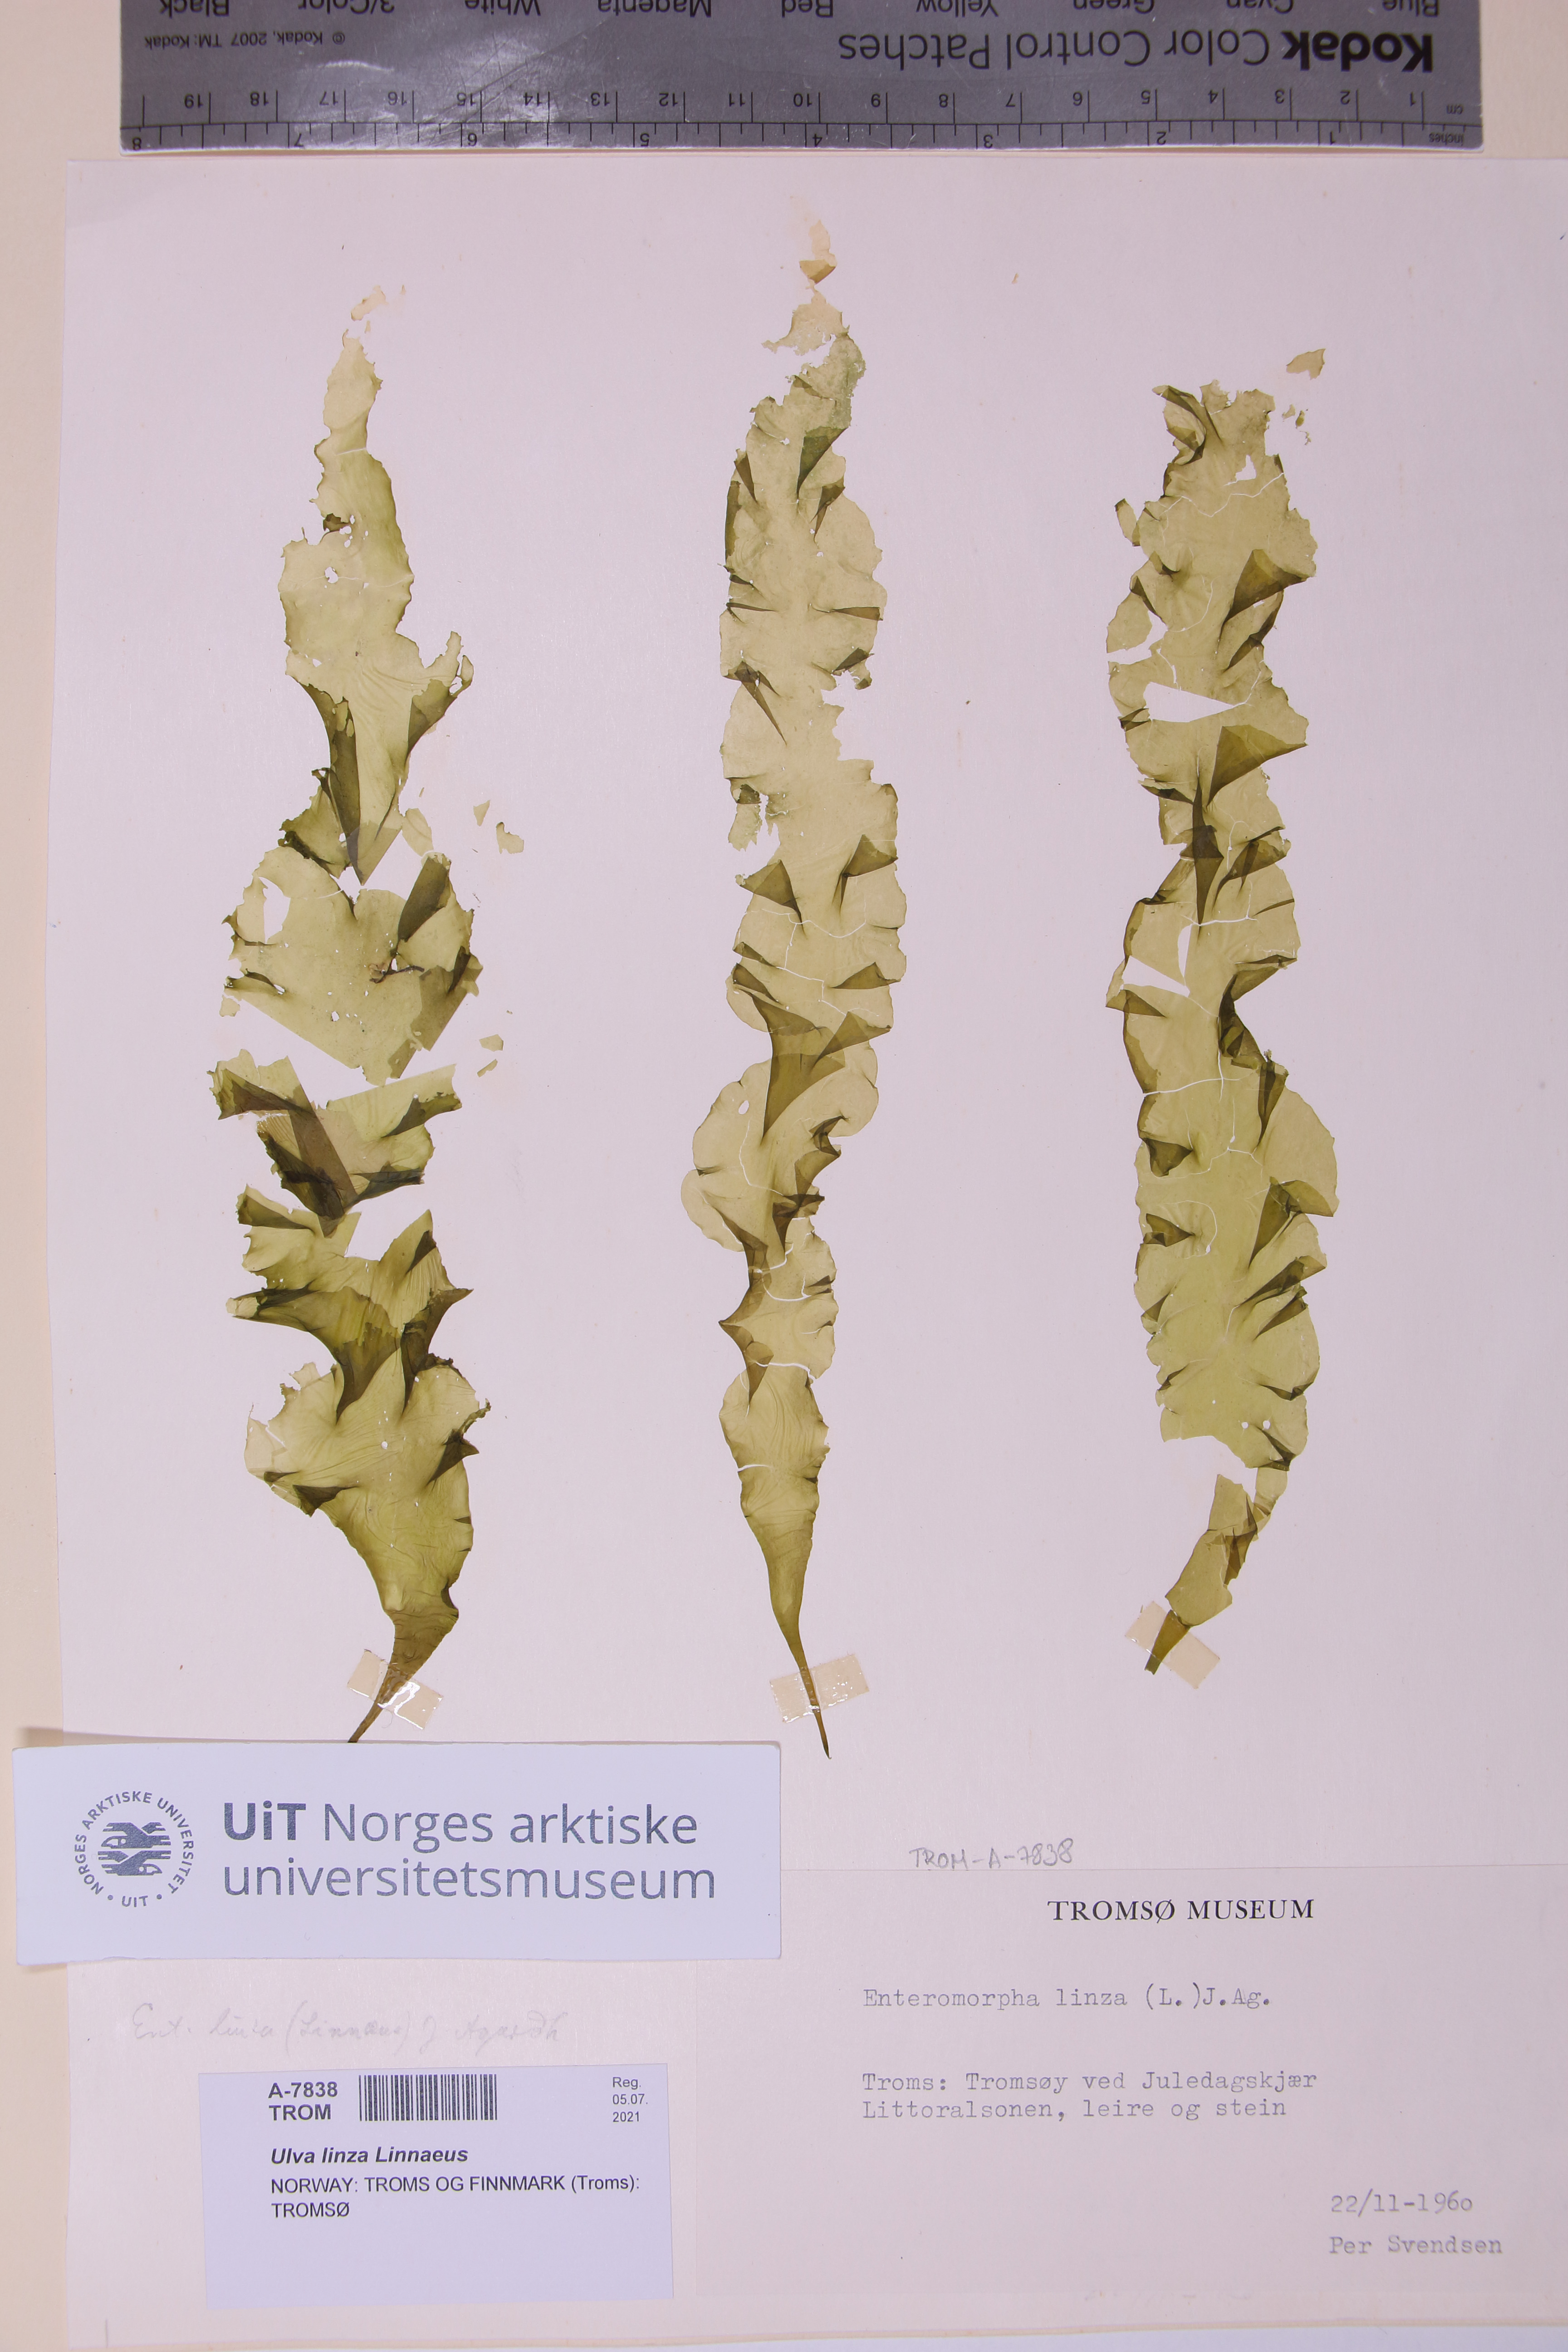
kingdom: Plantae
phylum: Chlorophyta
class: Ulvophyceae
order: Ulvales
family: Ulvaceae
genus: Ulva
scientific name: Ulva linza
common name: Green string lettuce
